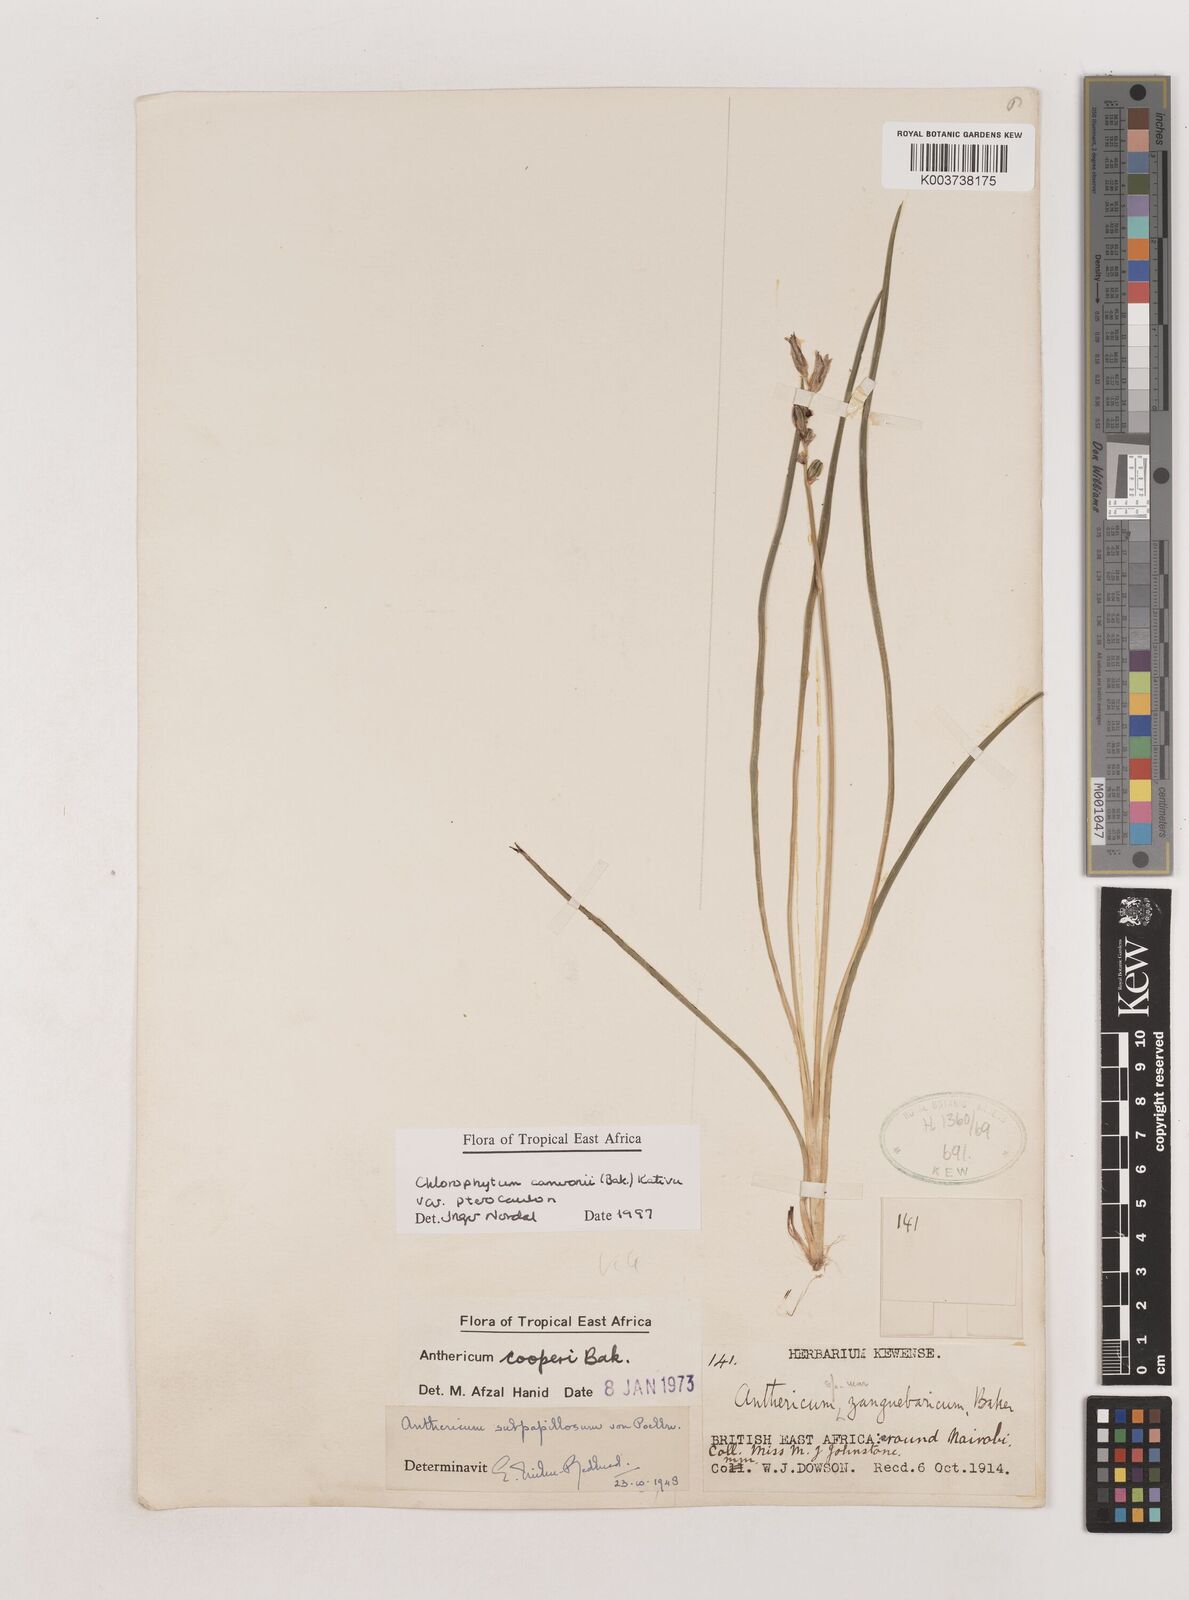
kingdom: Plantae
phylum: Tracheophyta
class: Liliopsida
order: Asparagales
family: Asparagaceae
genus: Chlorophytum
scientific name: Chlorophytum cameronii
